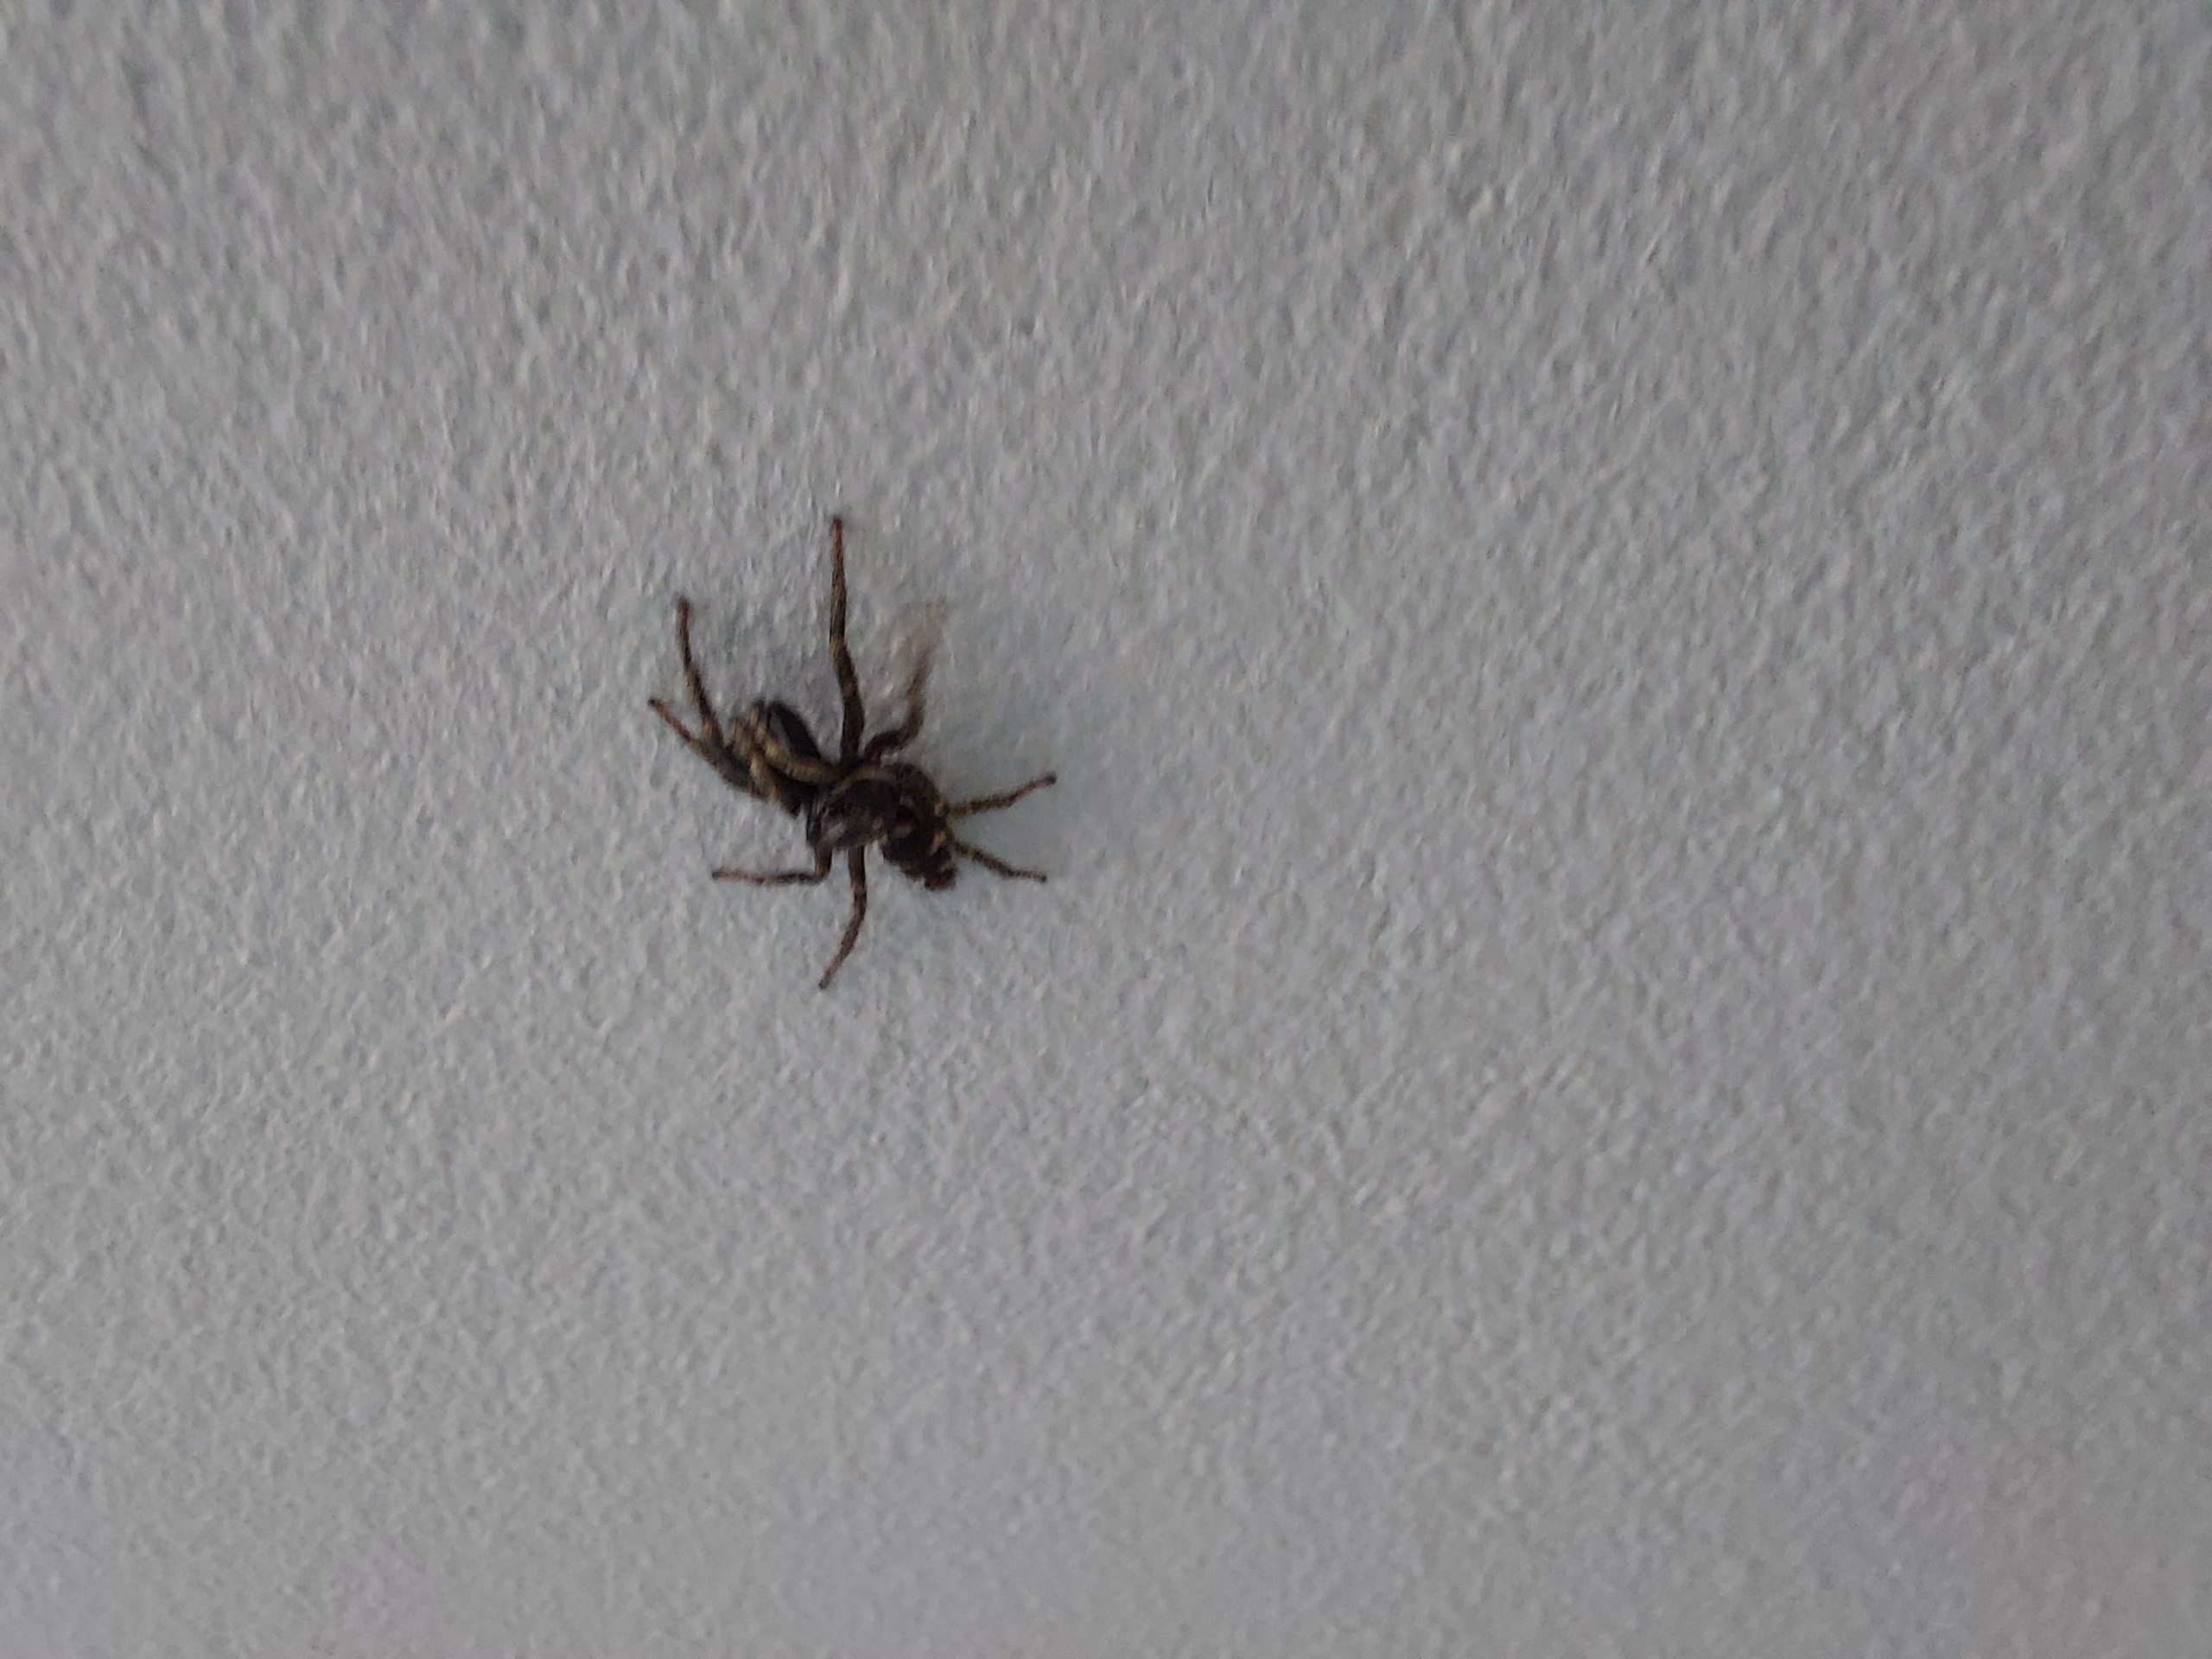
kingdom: Animalia
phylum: Arthropoda
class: Arachnida
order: Araneae
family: Salticidae
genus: Salticus
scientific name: Salticus scenicus
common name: Almindelig zebraedderkop
